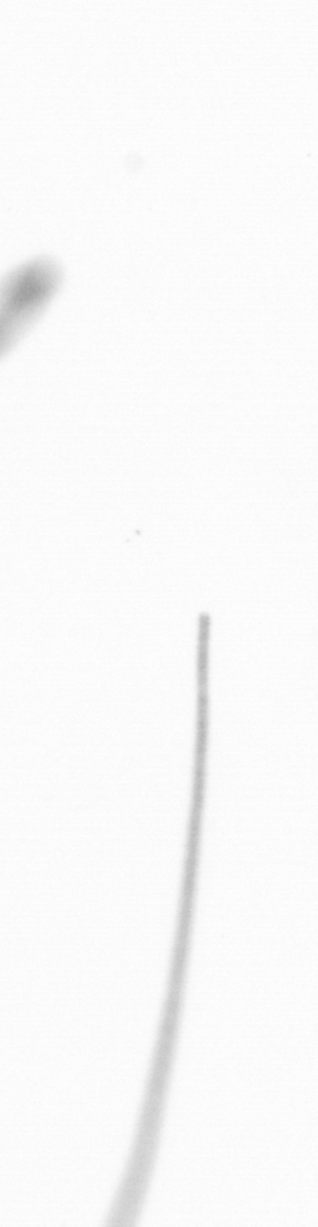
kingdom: Chromista
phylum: Ochrophyta
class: Bacillariophyceae
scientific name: Bacillariophyceae
